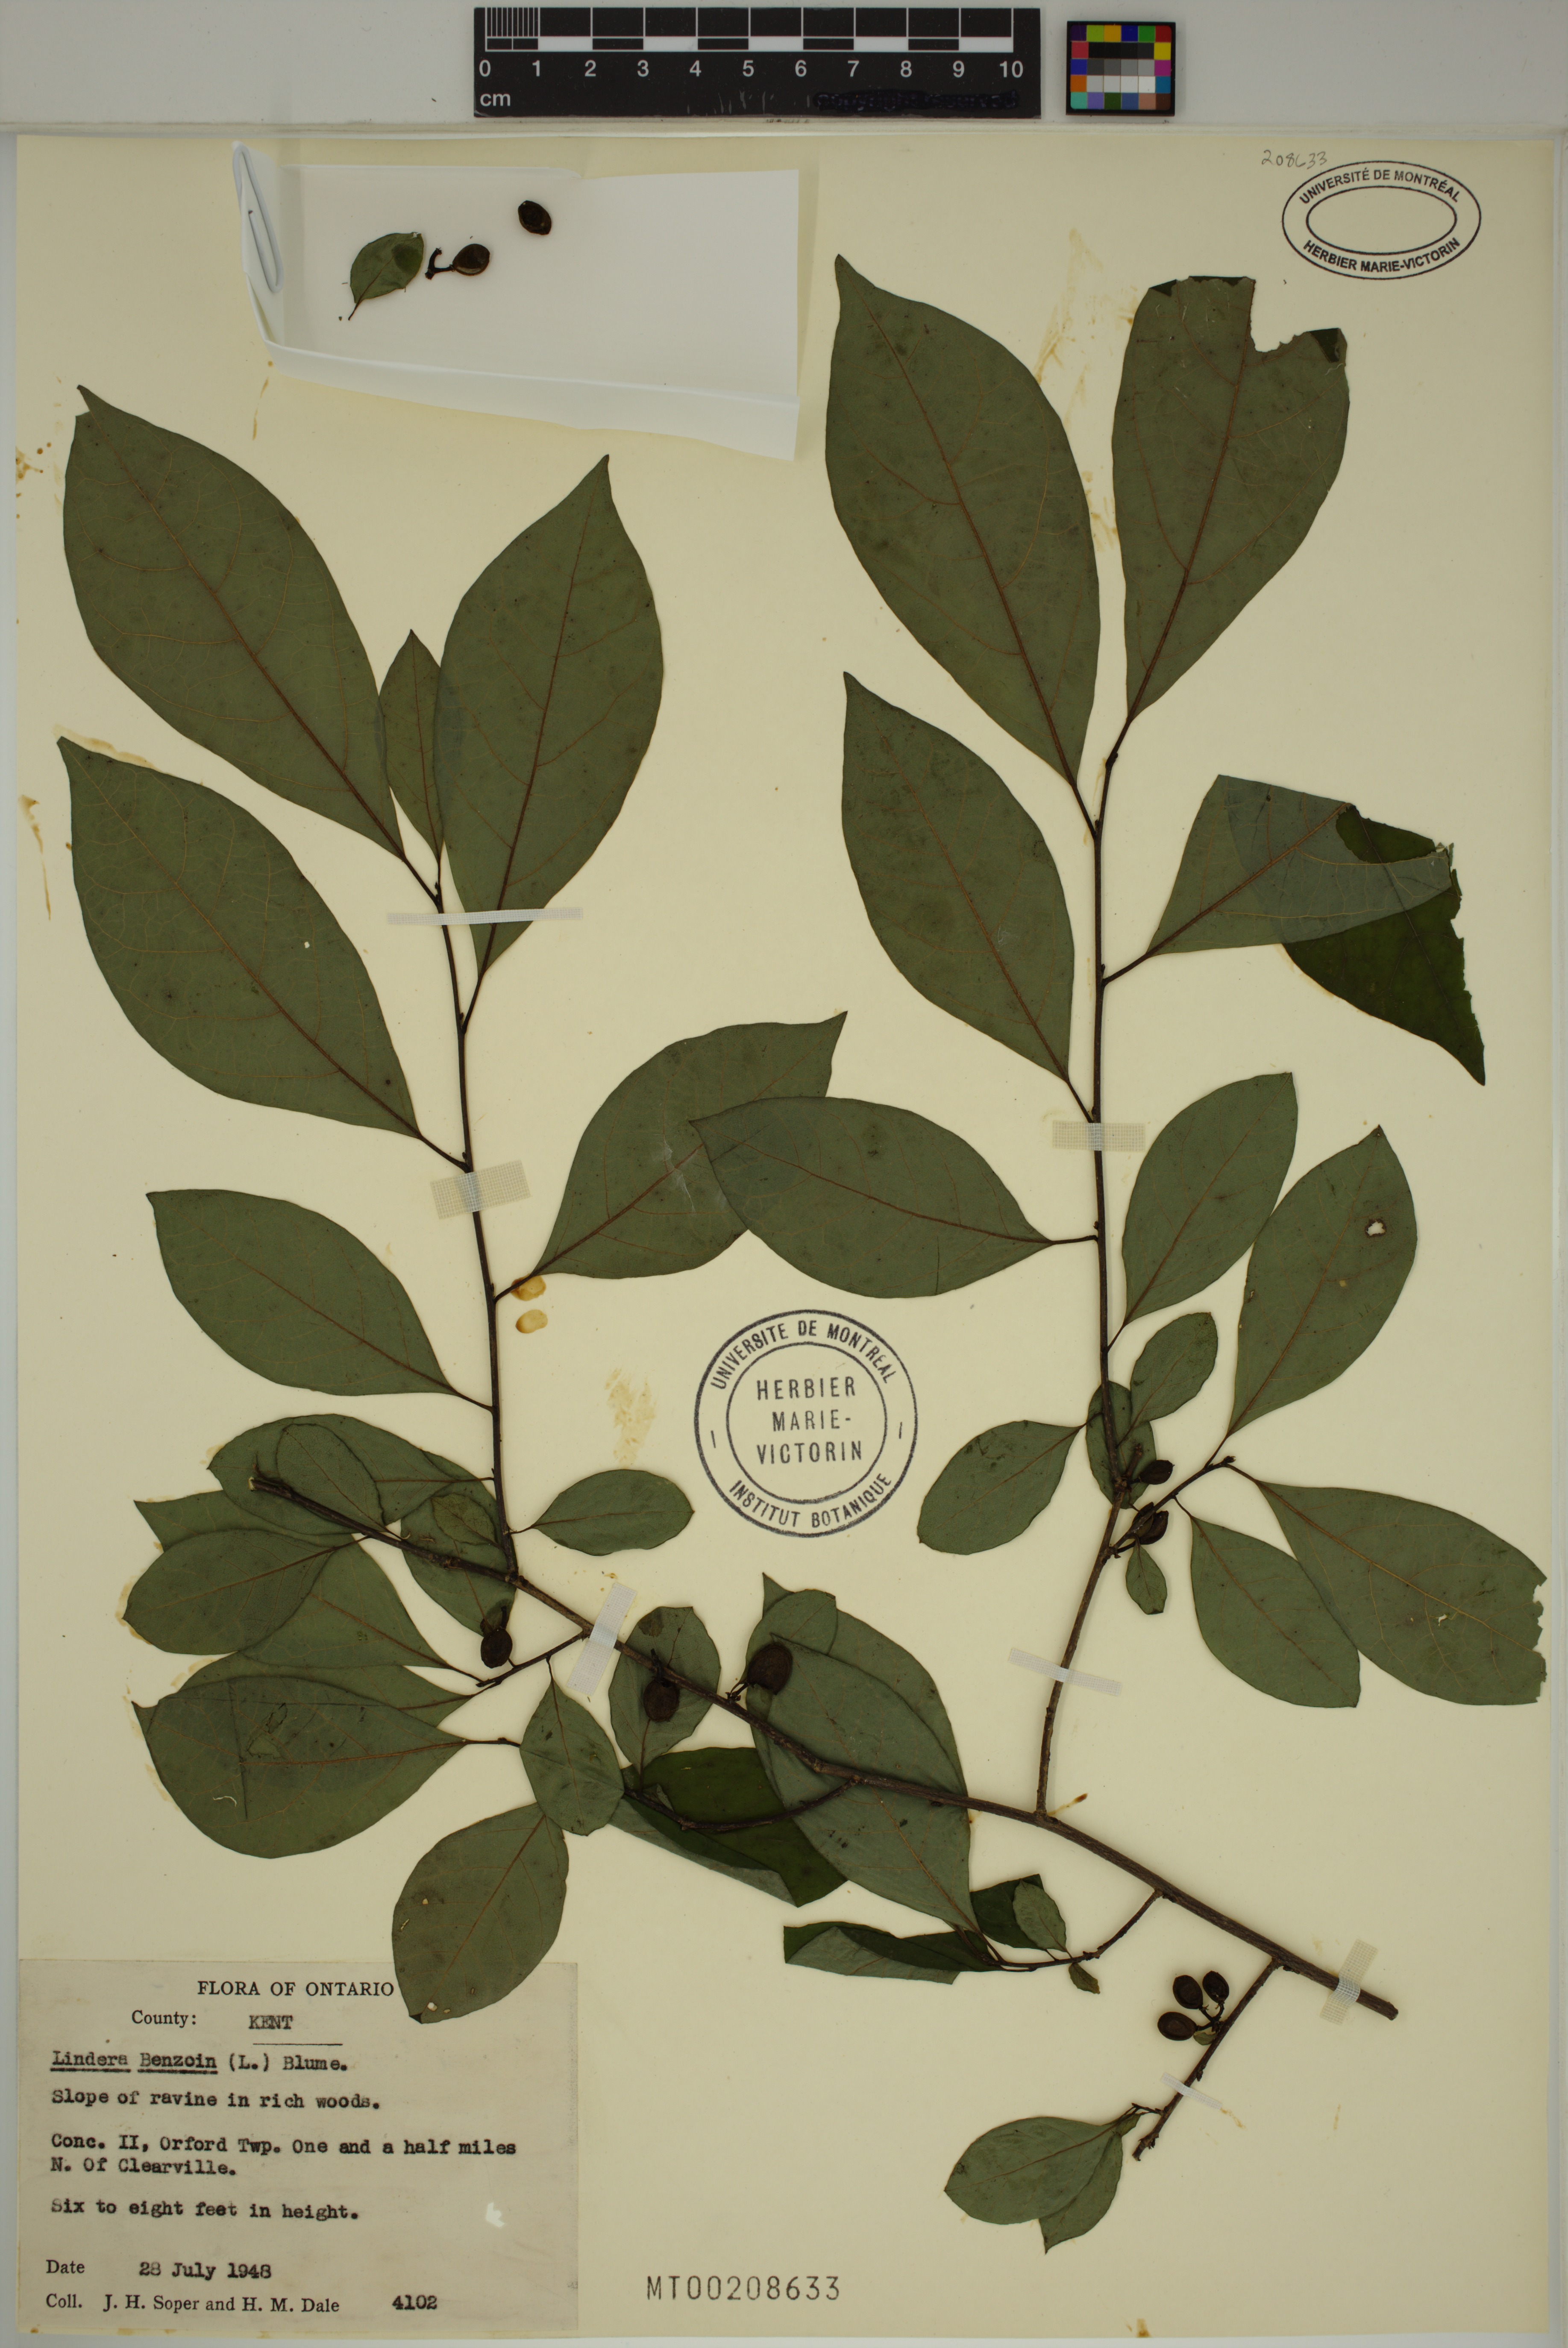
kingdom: Plantae
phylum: Tracheophyta
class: Magnoliopsida
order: Laurales
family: Lauraceae
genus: Lindera
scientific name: Lindera benzoin
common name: Spicebush
